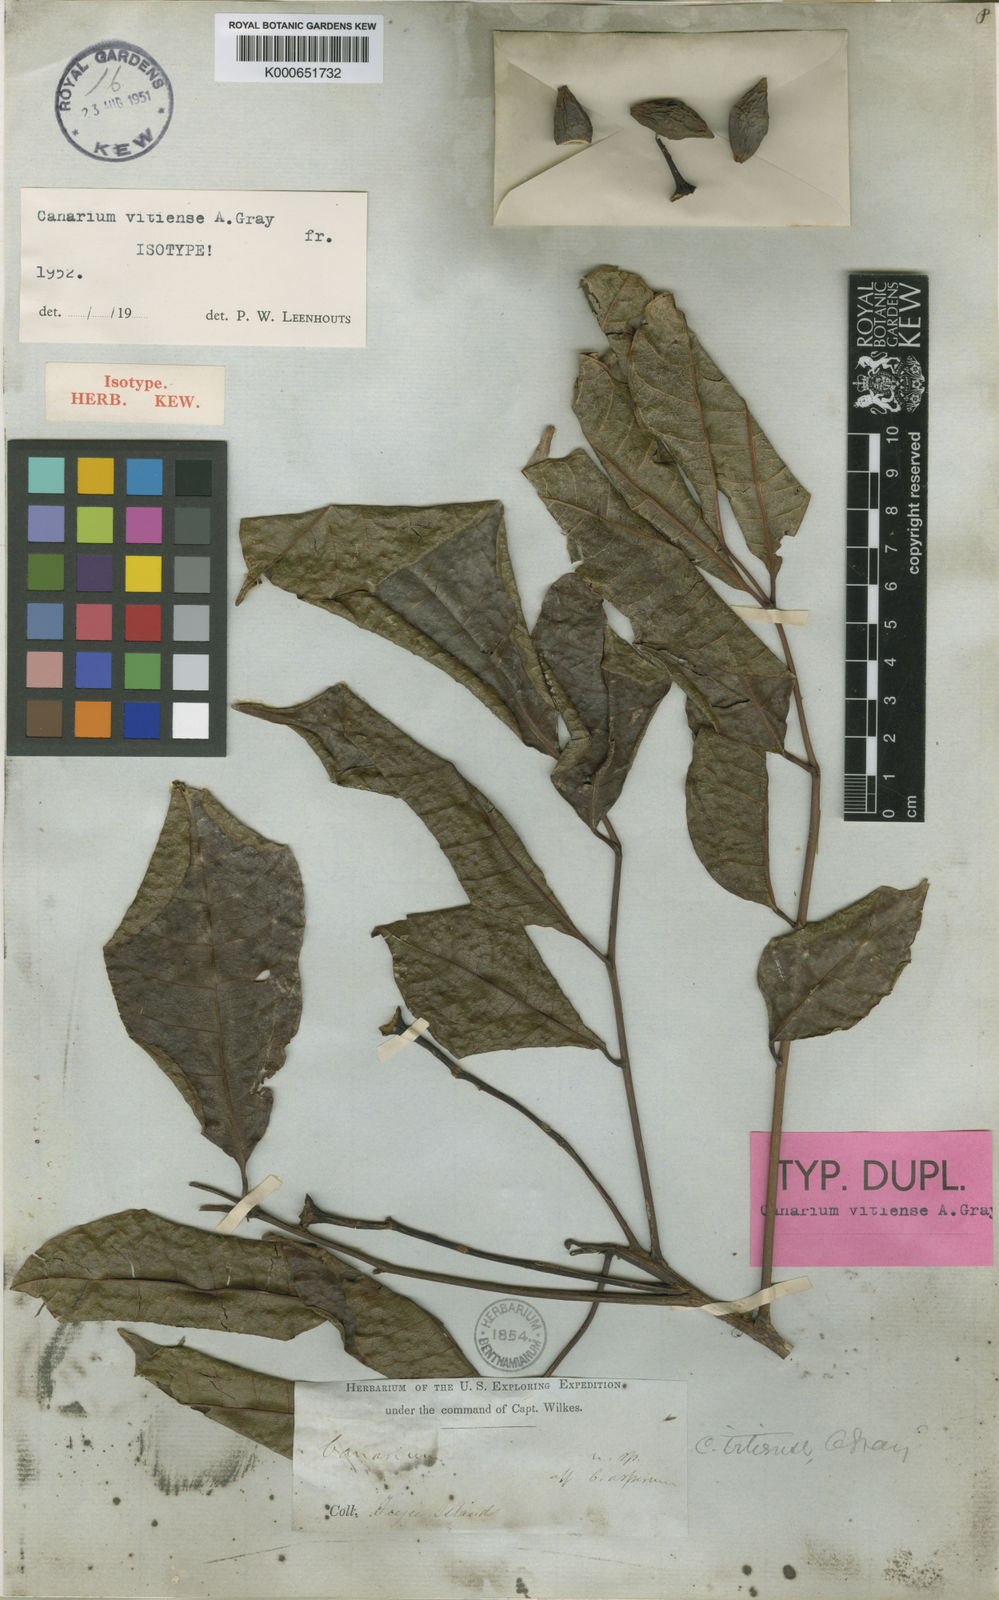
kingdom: Plantae
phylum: Tracheophyta
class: Magnoliopsida
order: Sapindales
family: Burseraceae
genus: Canarium
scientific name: Canarium vitiense
